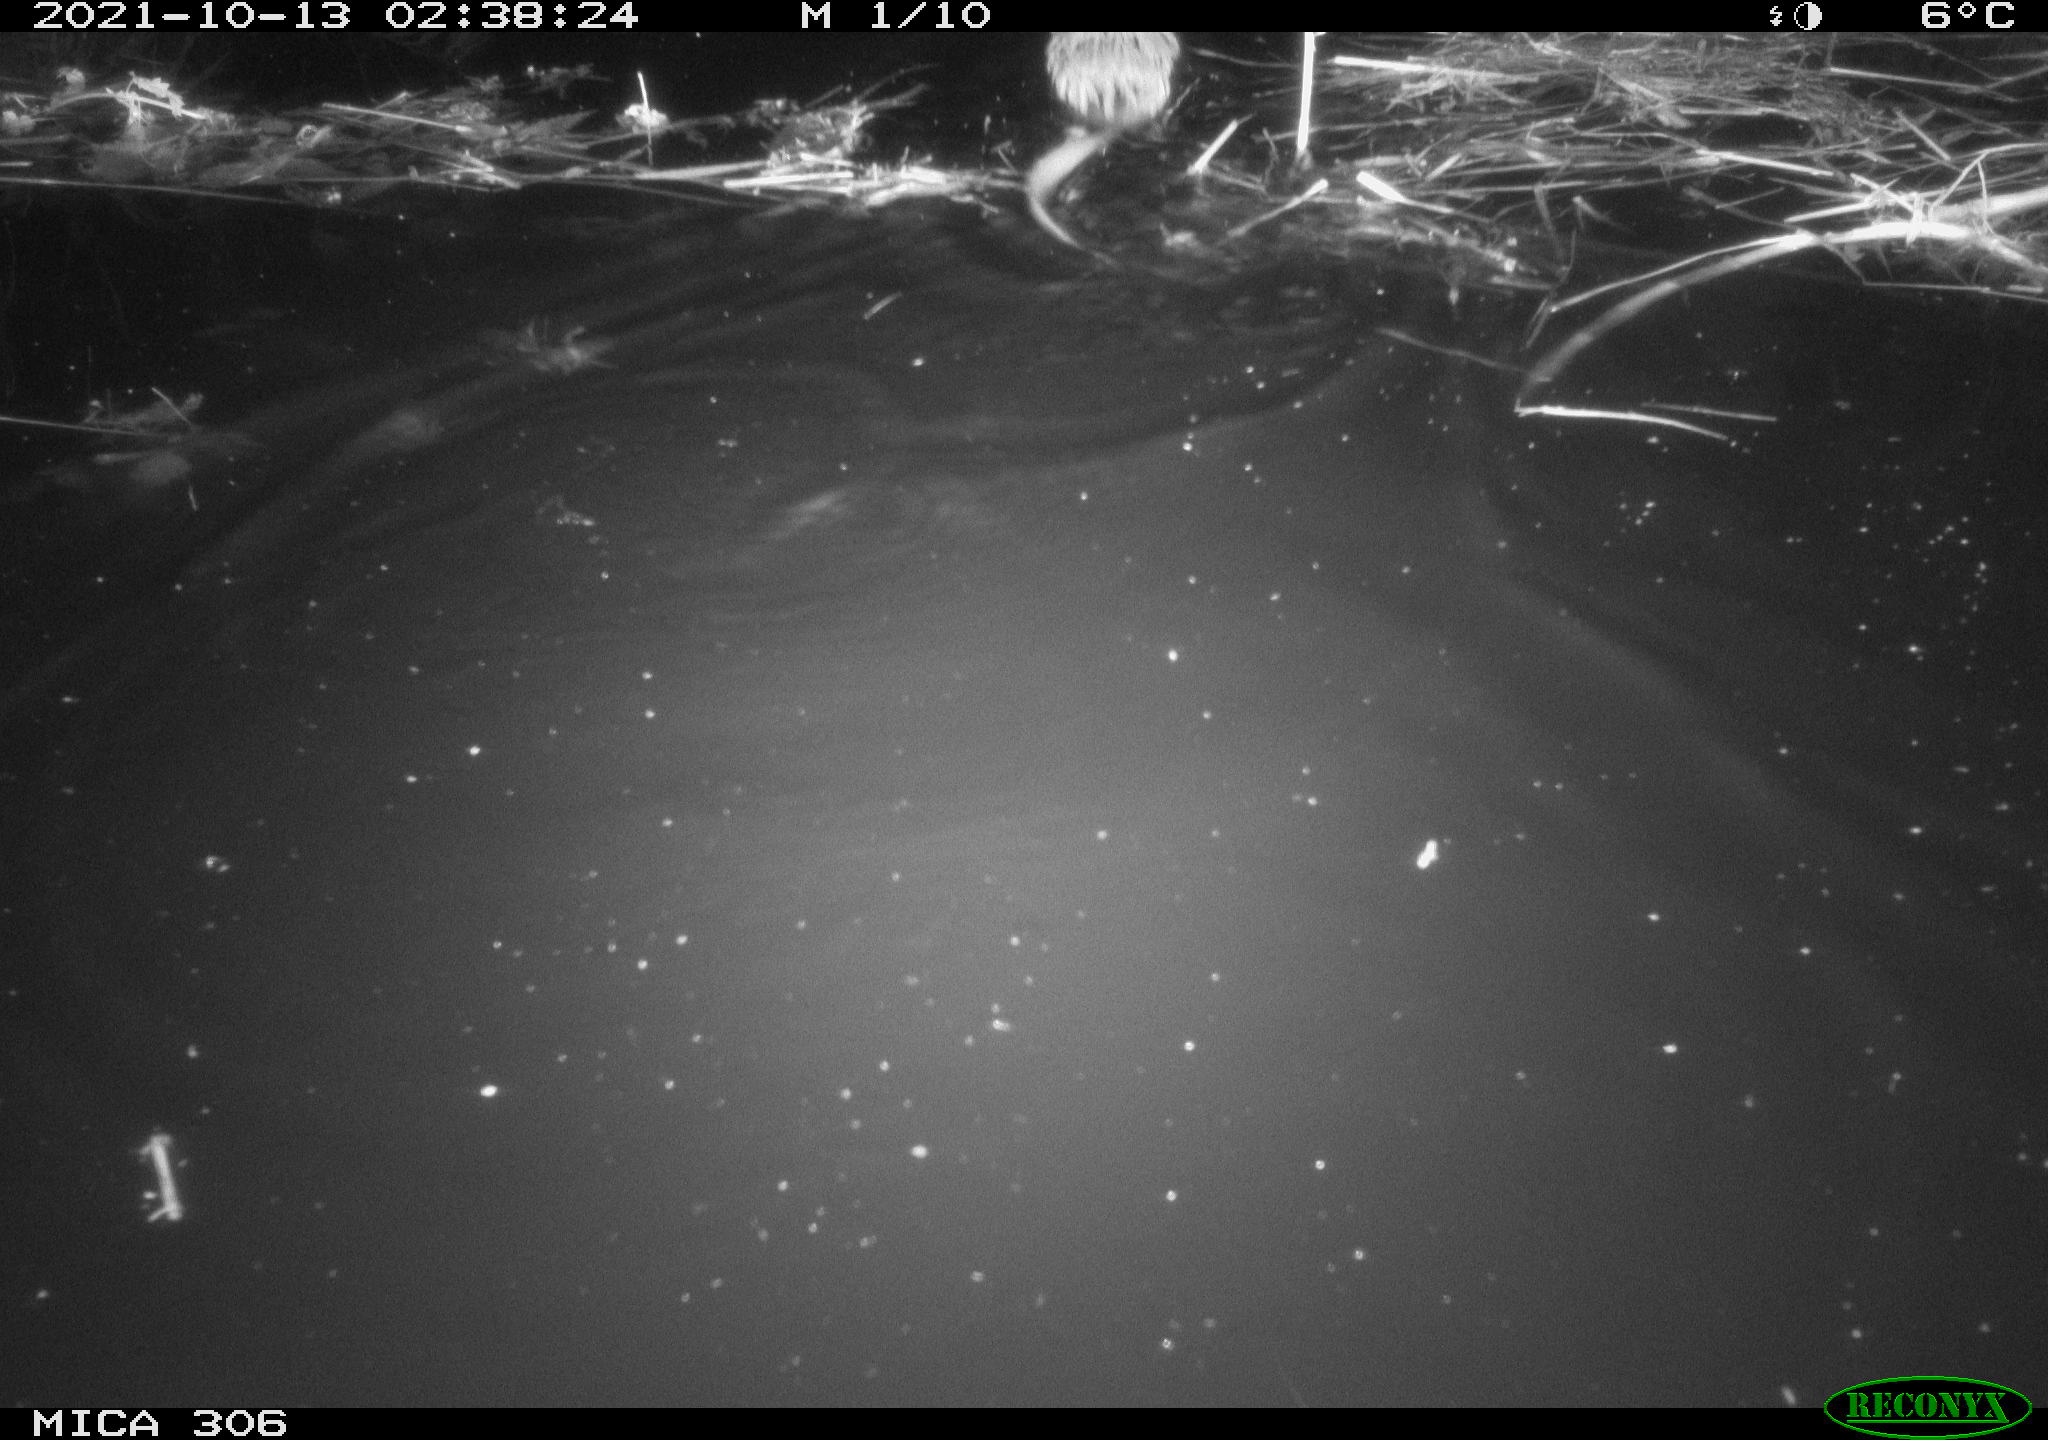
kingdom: Animalia
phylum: Chordata
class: Mammalia
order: Rodentia
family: Cricetidae
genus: Ondatra
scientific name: Ondatra zibethicus
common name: Muskrat
